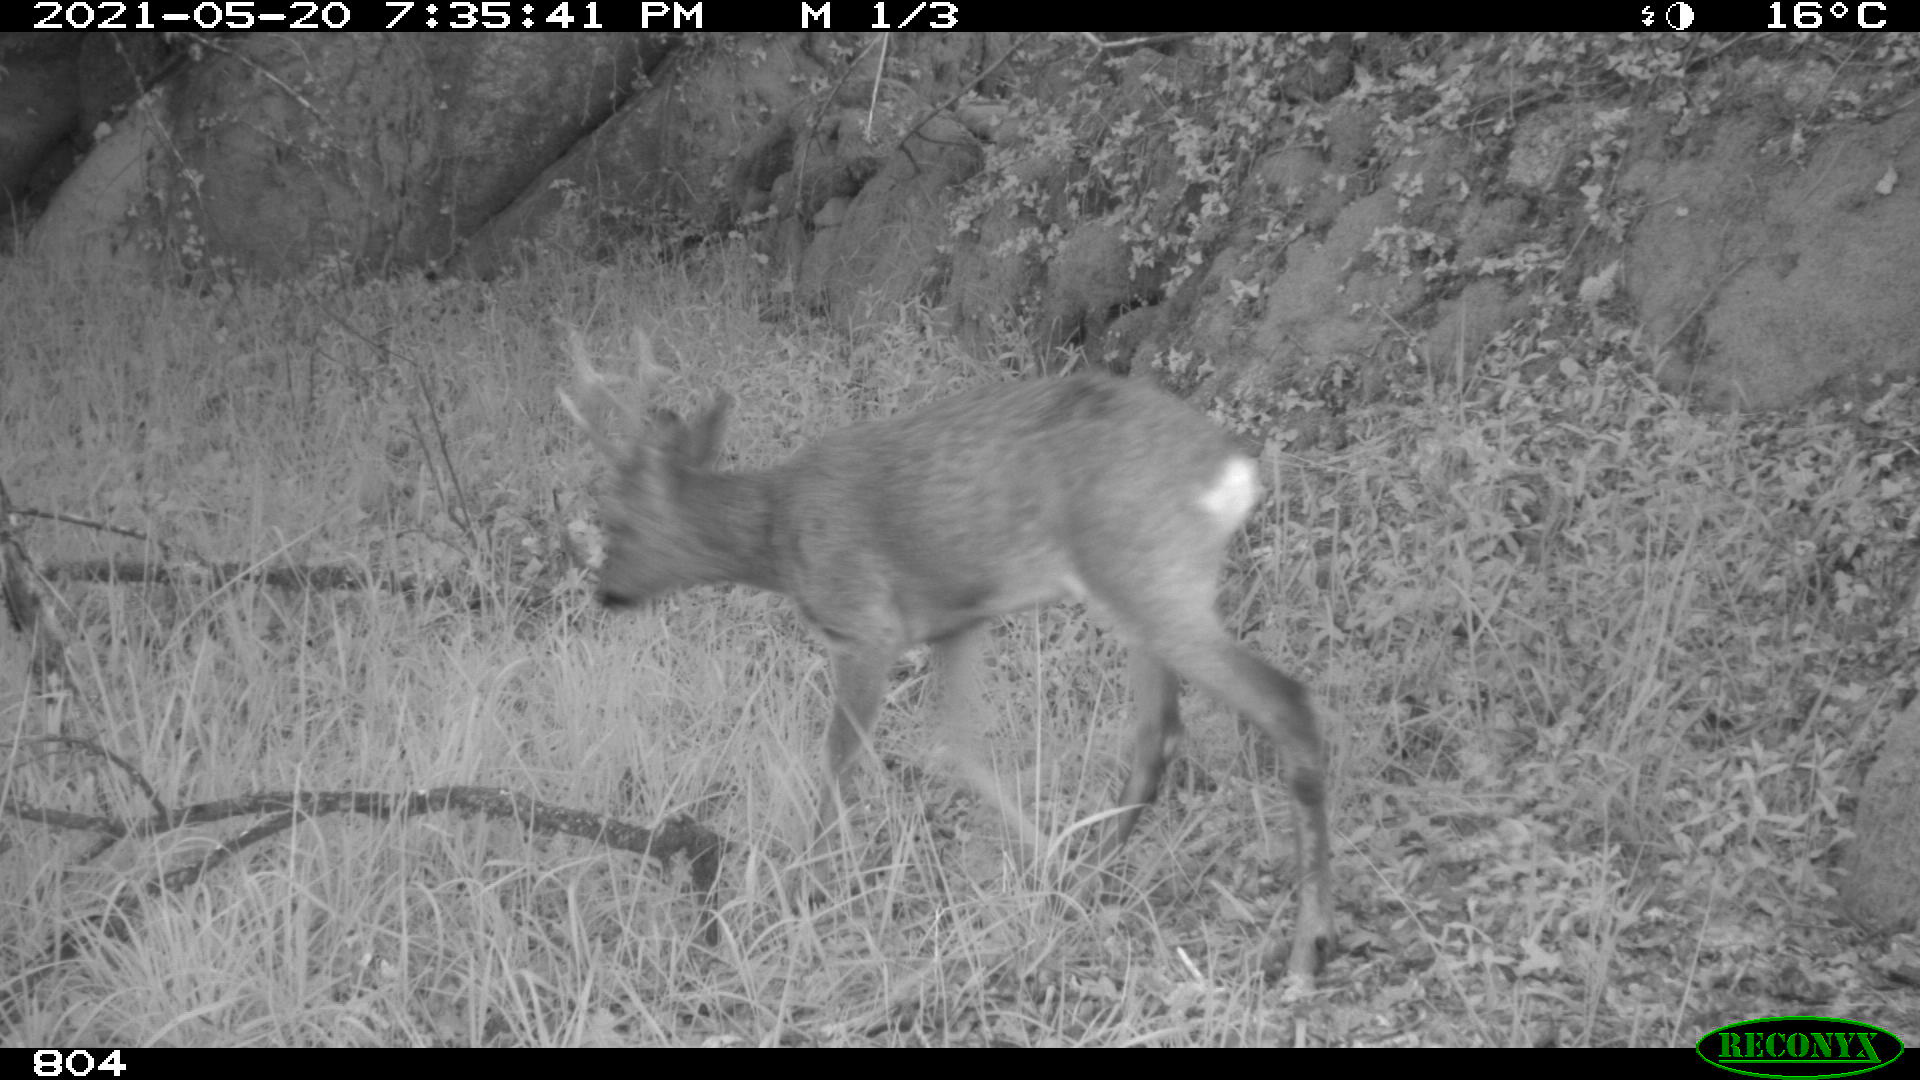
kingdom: Animalia
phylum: Chordata
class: Mammalia
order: Artiodactyla
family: Cervidae
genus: Capreolus
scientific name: Capreolus capreolus
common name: Western roe deer
